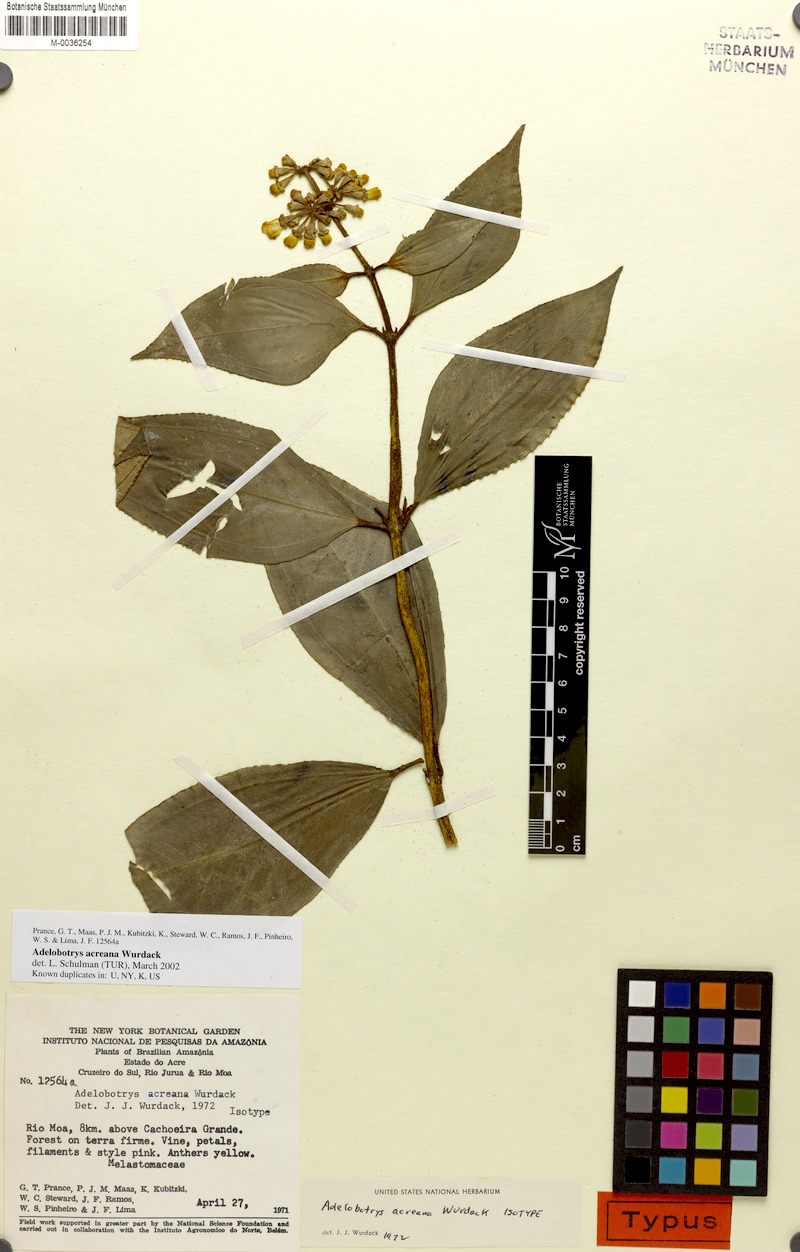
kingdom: Plantae
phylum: Tracheophyta
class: Magnoliopsida
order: Myrtales
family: Melastomataceae
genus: Adelobotrys
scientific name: Adelobotrys acreanus
